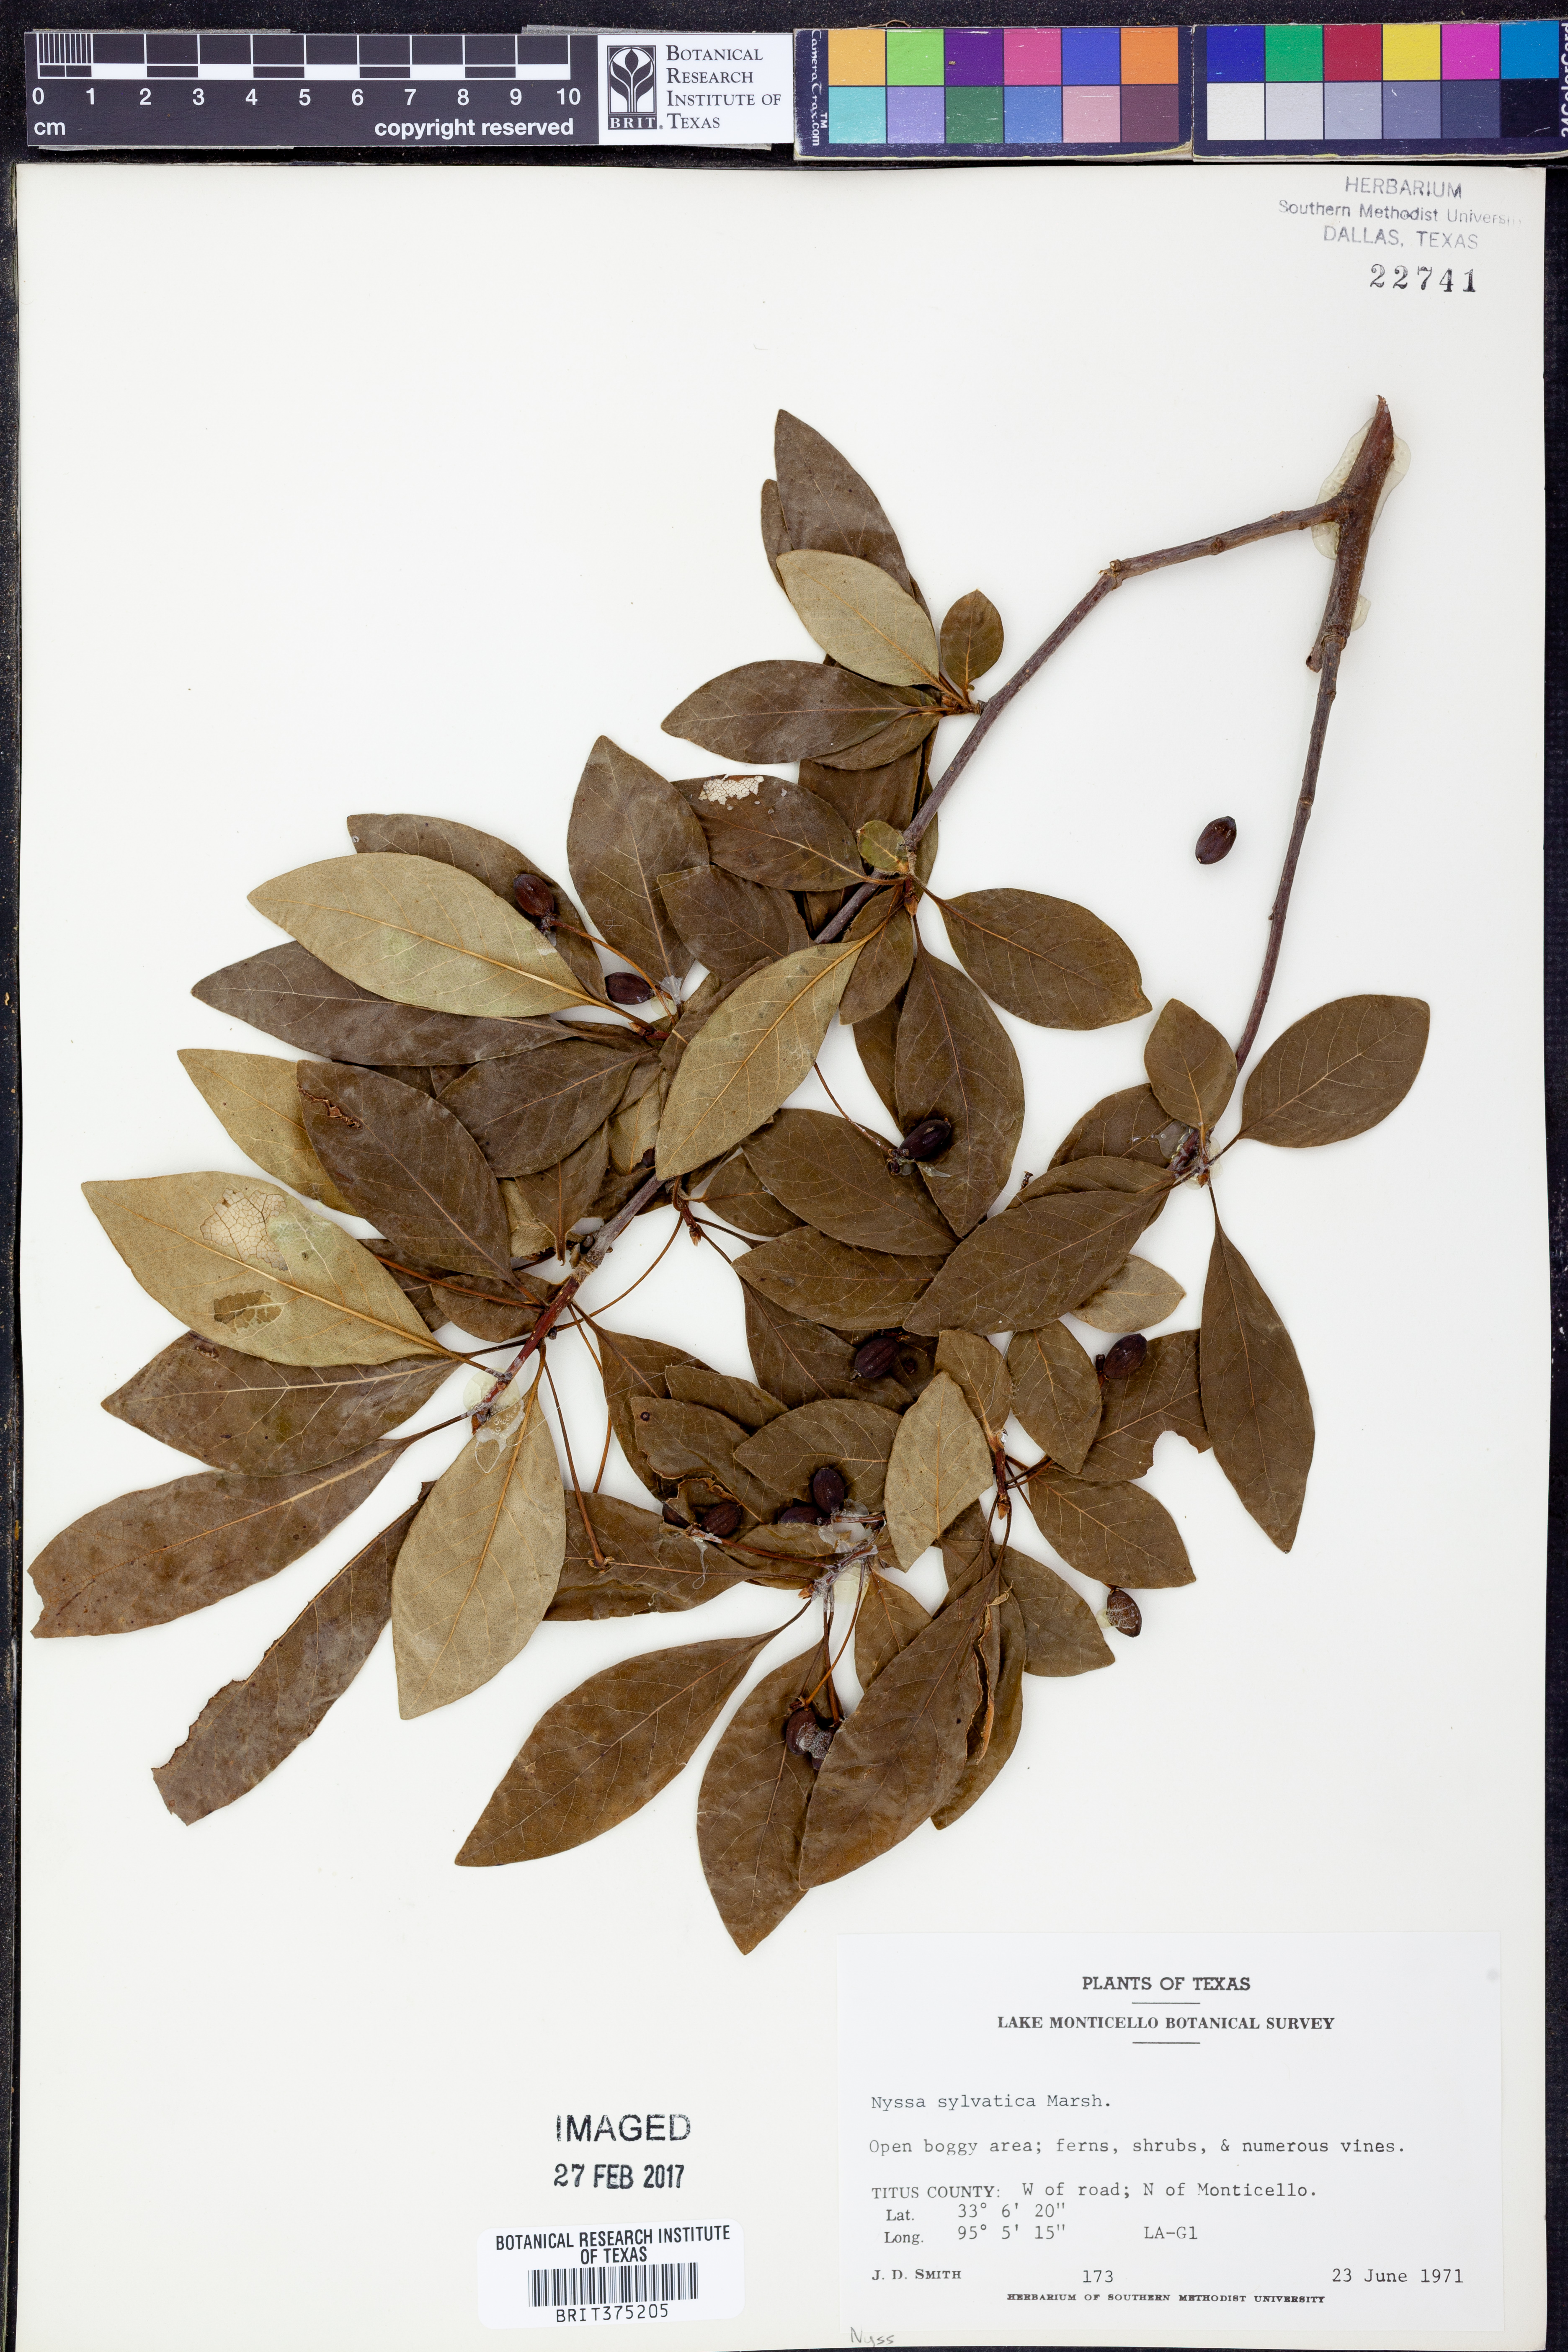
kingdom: Plantae
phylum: Tracheophyta
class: Magnoliopsida
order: Cornales
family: Nyssaceae
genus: Nyssa
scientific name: Nyssa sylvatica
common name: Black tupelo
